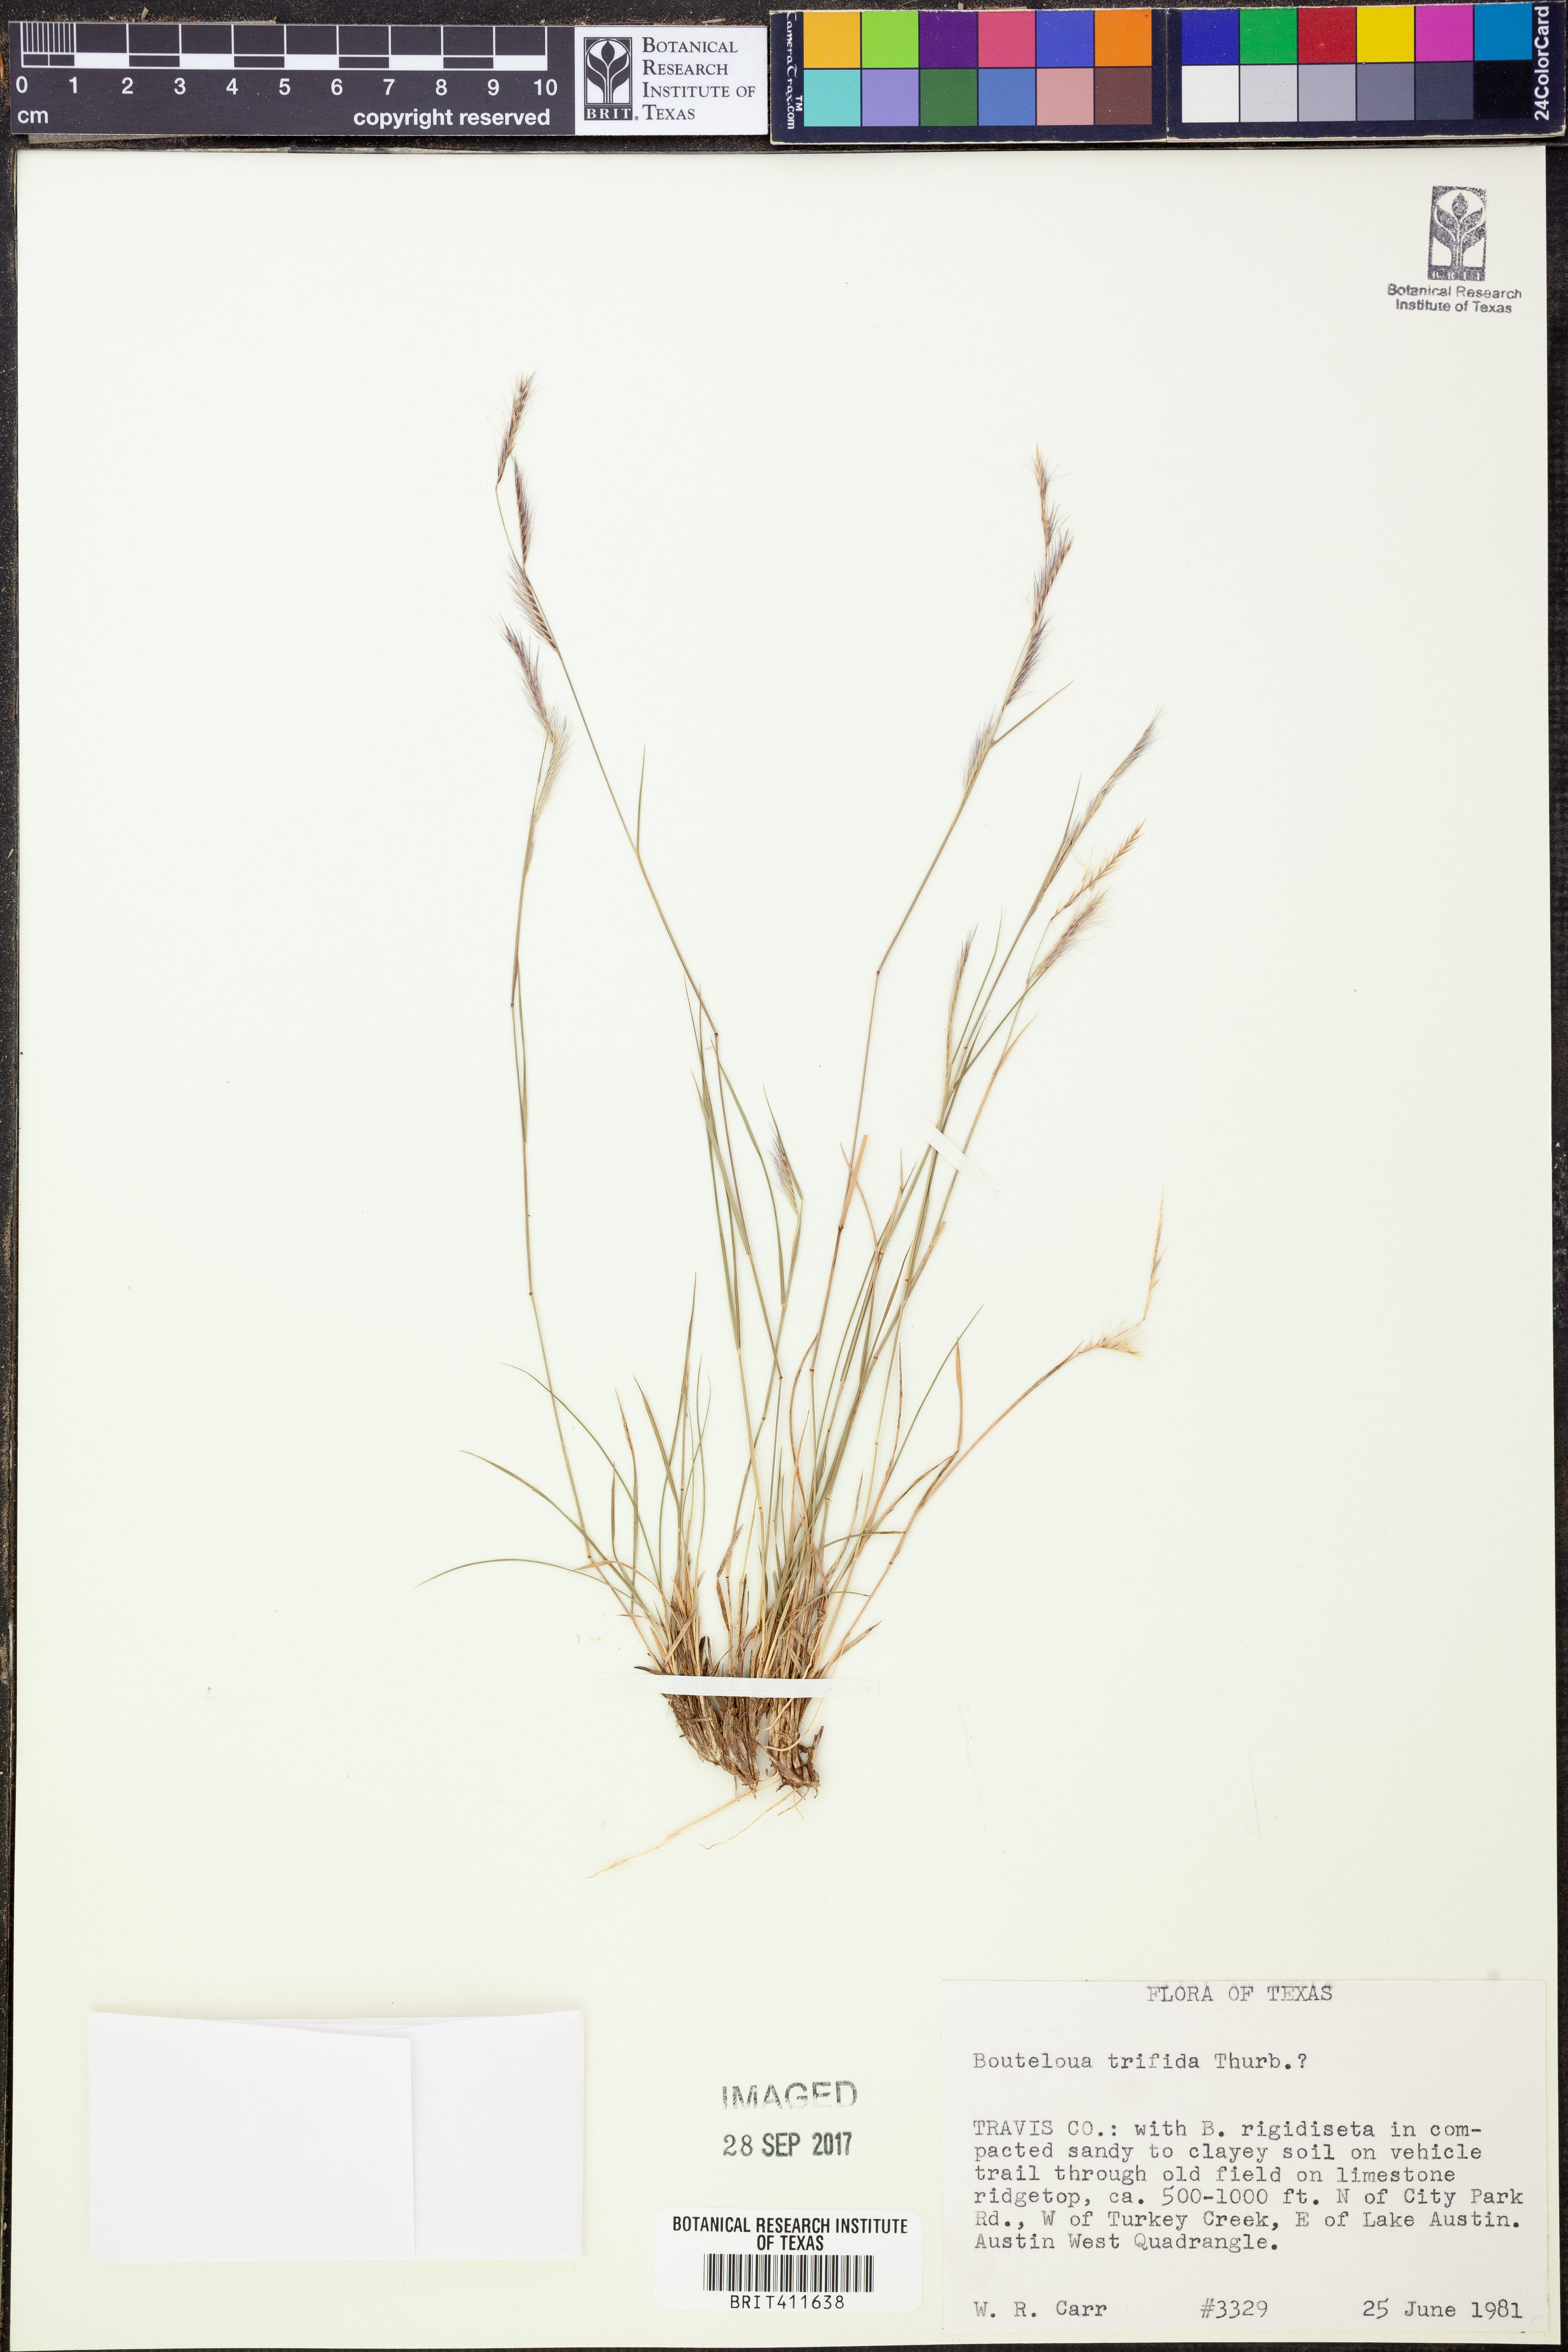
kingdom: Plantae
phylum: Tracheophyta
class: Liliopsida
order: Poales
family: Poaceae
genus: Bouteloua
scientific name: Bouteloua trifida
